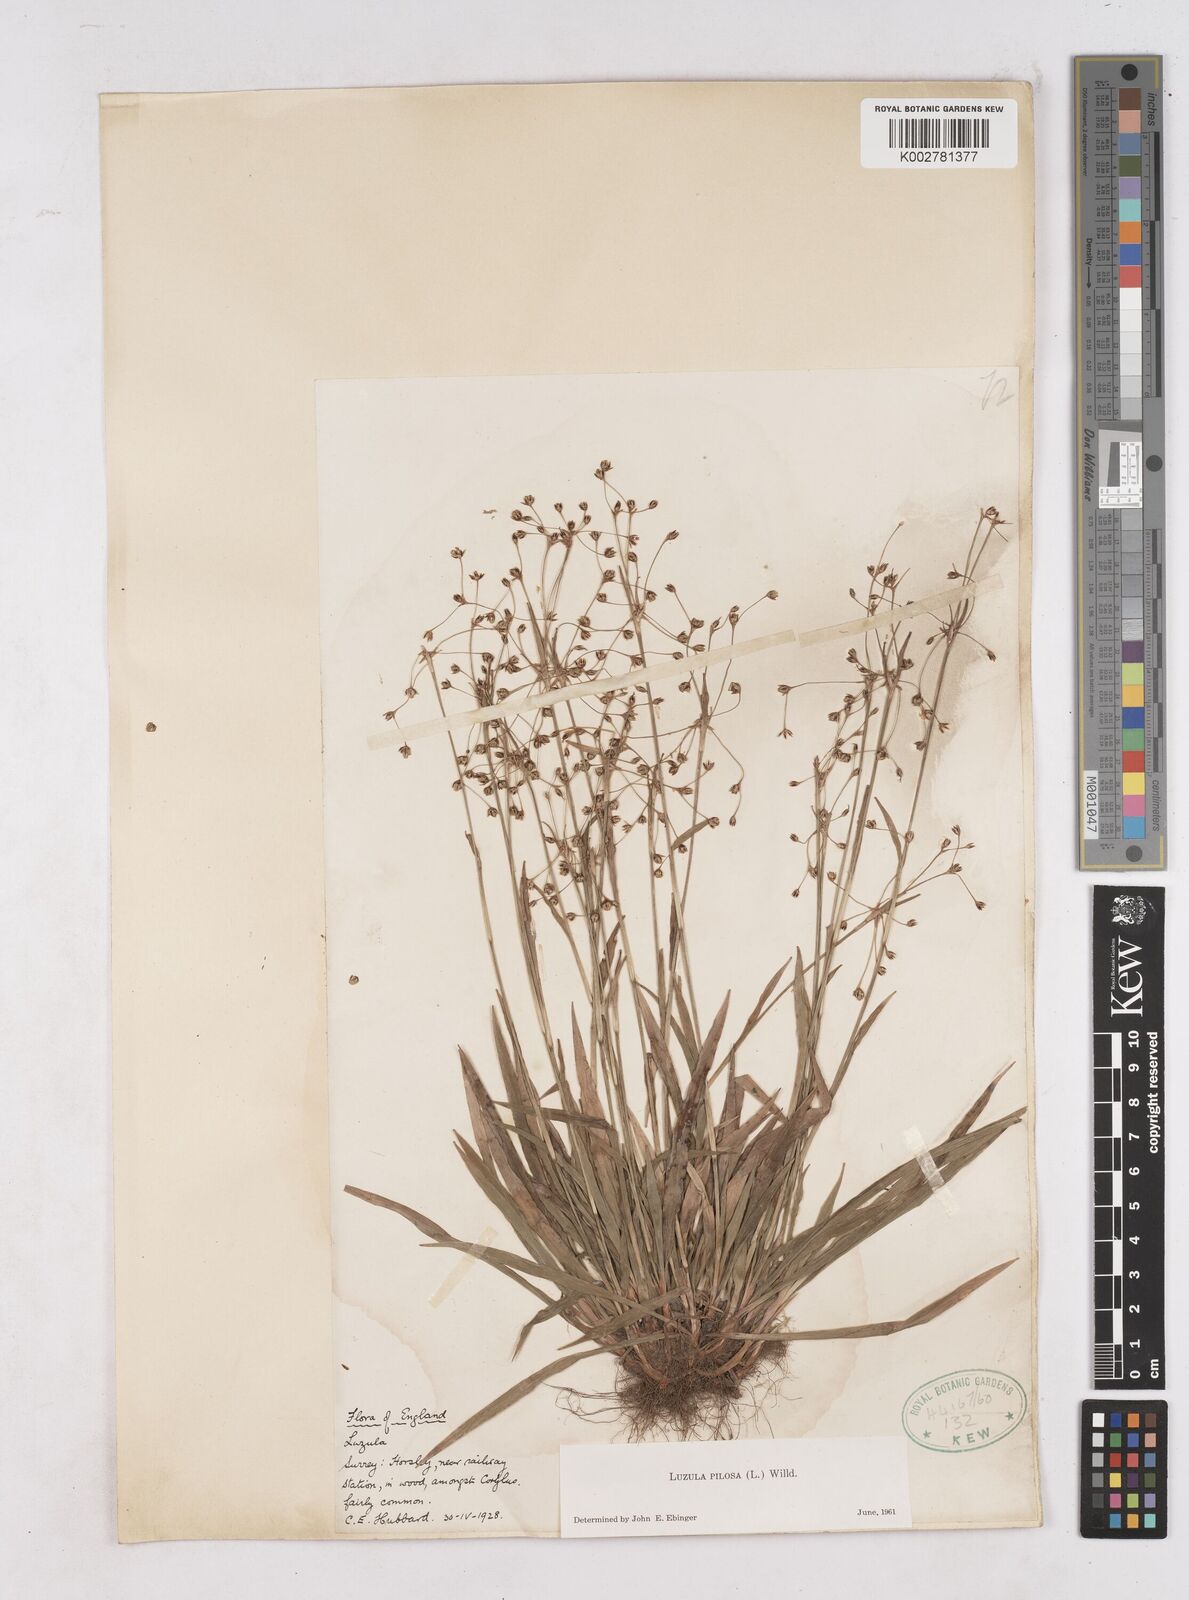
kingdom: Plantae
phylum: Tracheophyta
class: Liliopsida
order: Poales
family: Juncaceae
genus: Luzula
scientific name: Luzula pilosa
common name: Hairy wood-rush
